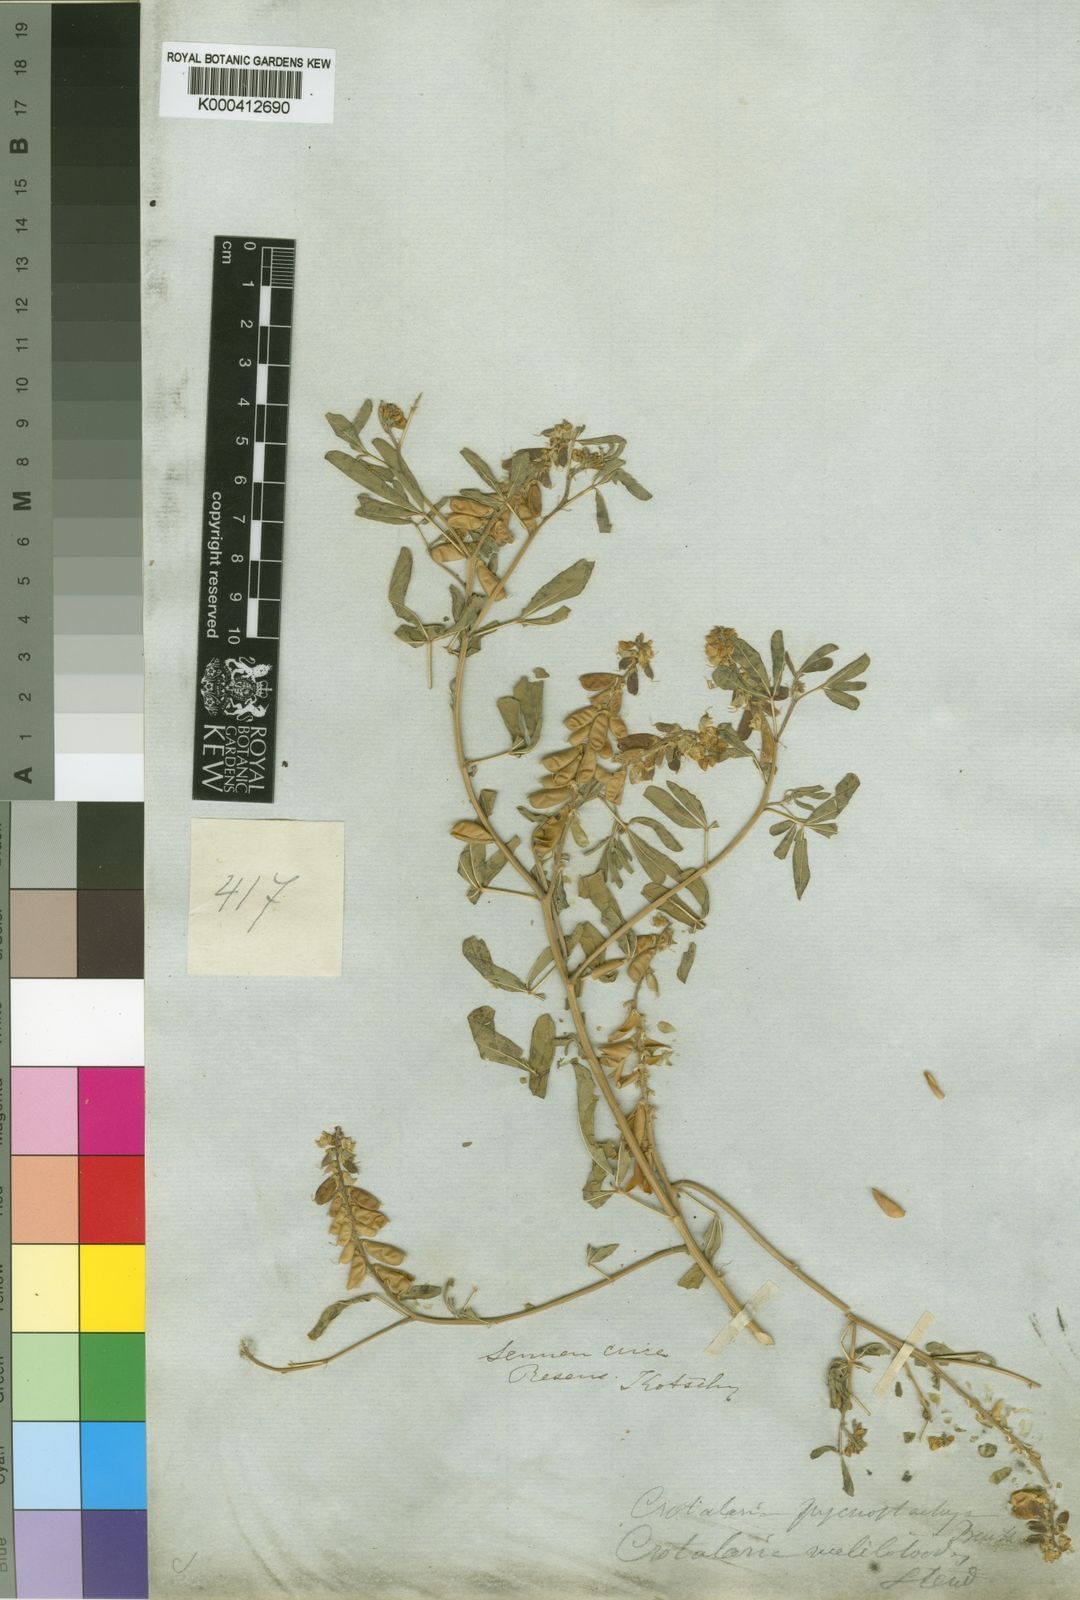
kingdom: Plantae
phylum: Tracheophyta
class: Magnoliopsida
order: Fabales
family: Fabaceae
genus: Crotalaria
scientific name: Crotalaria pycnostachya
